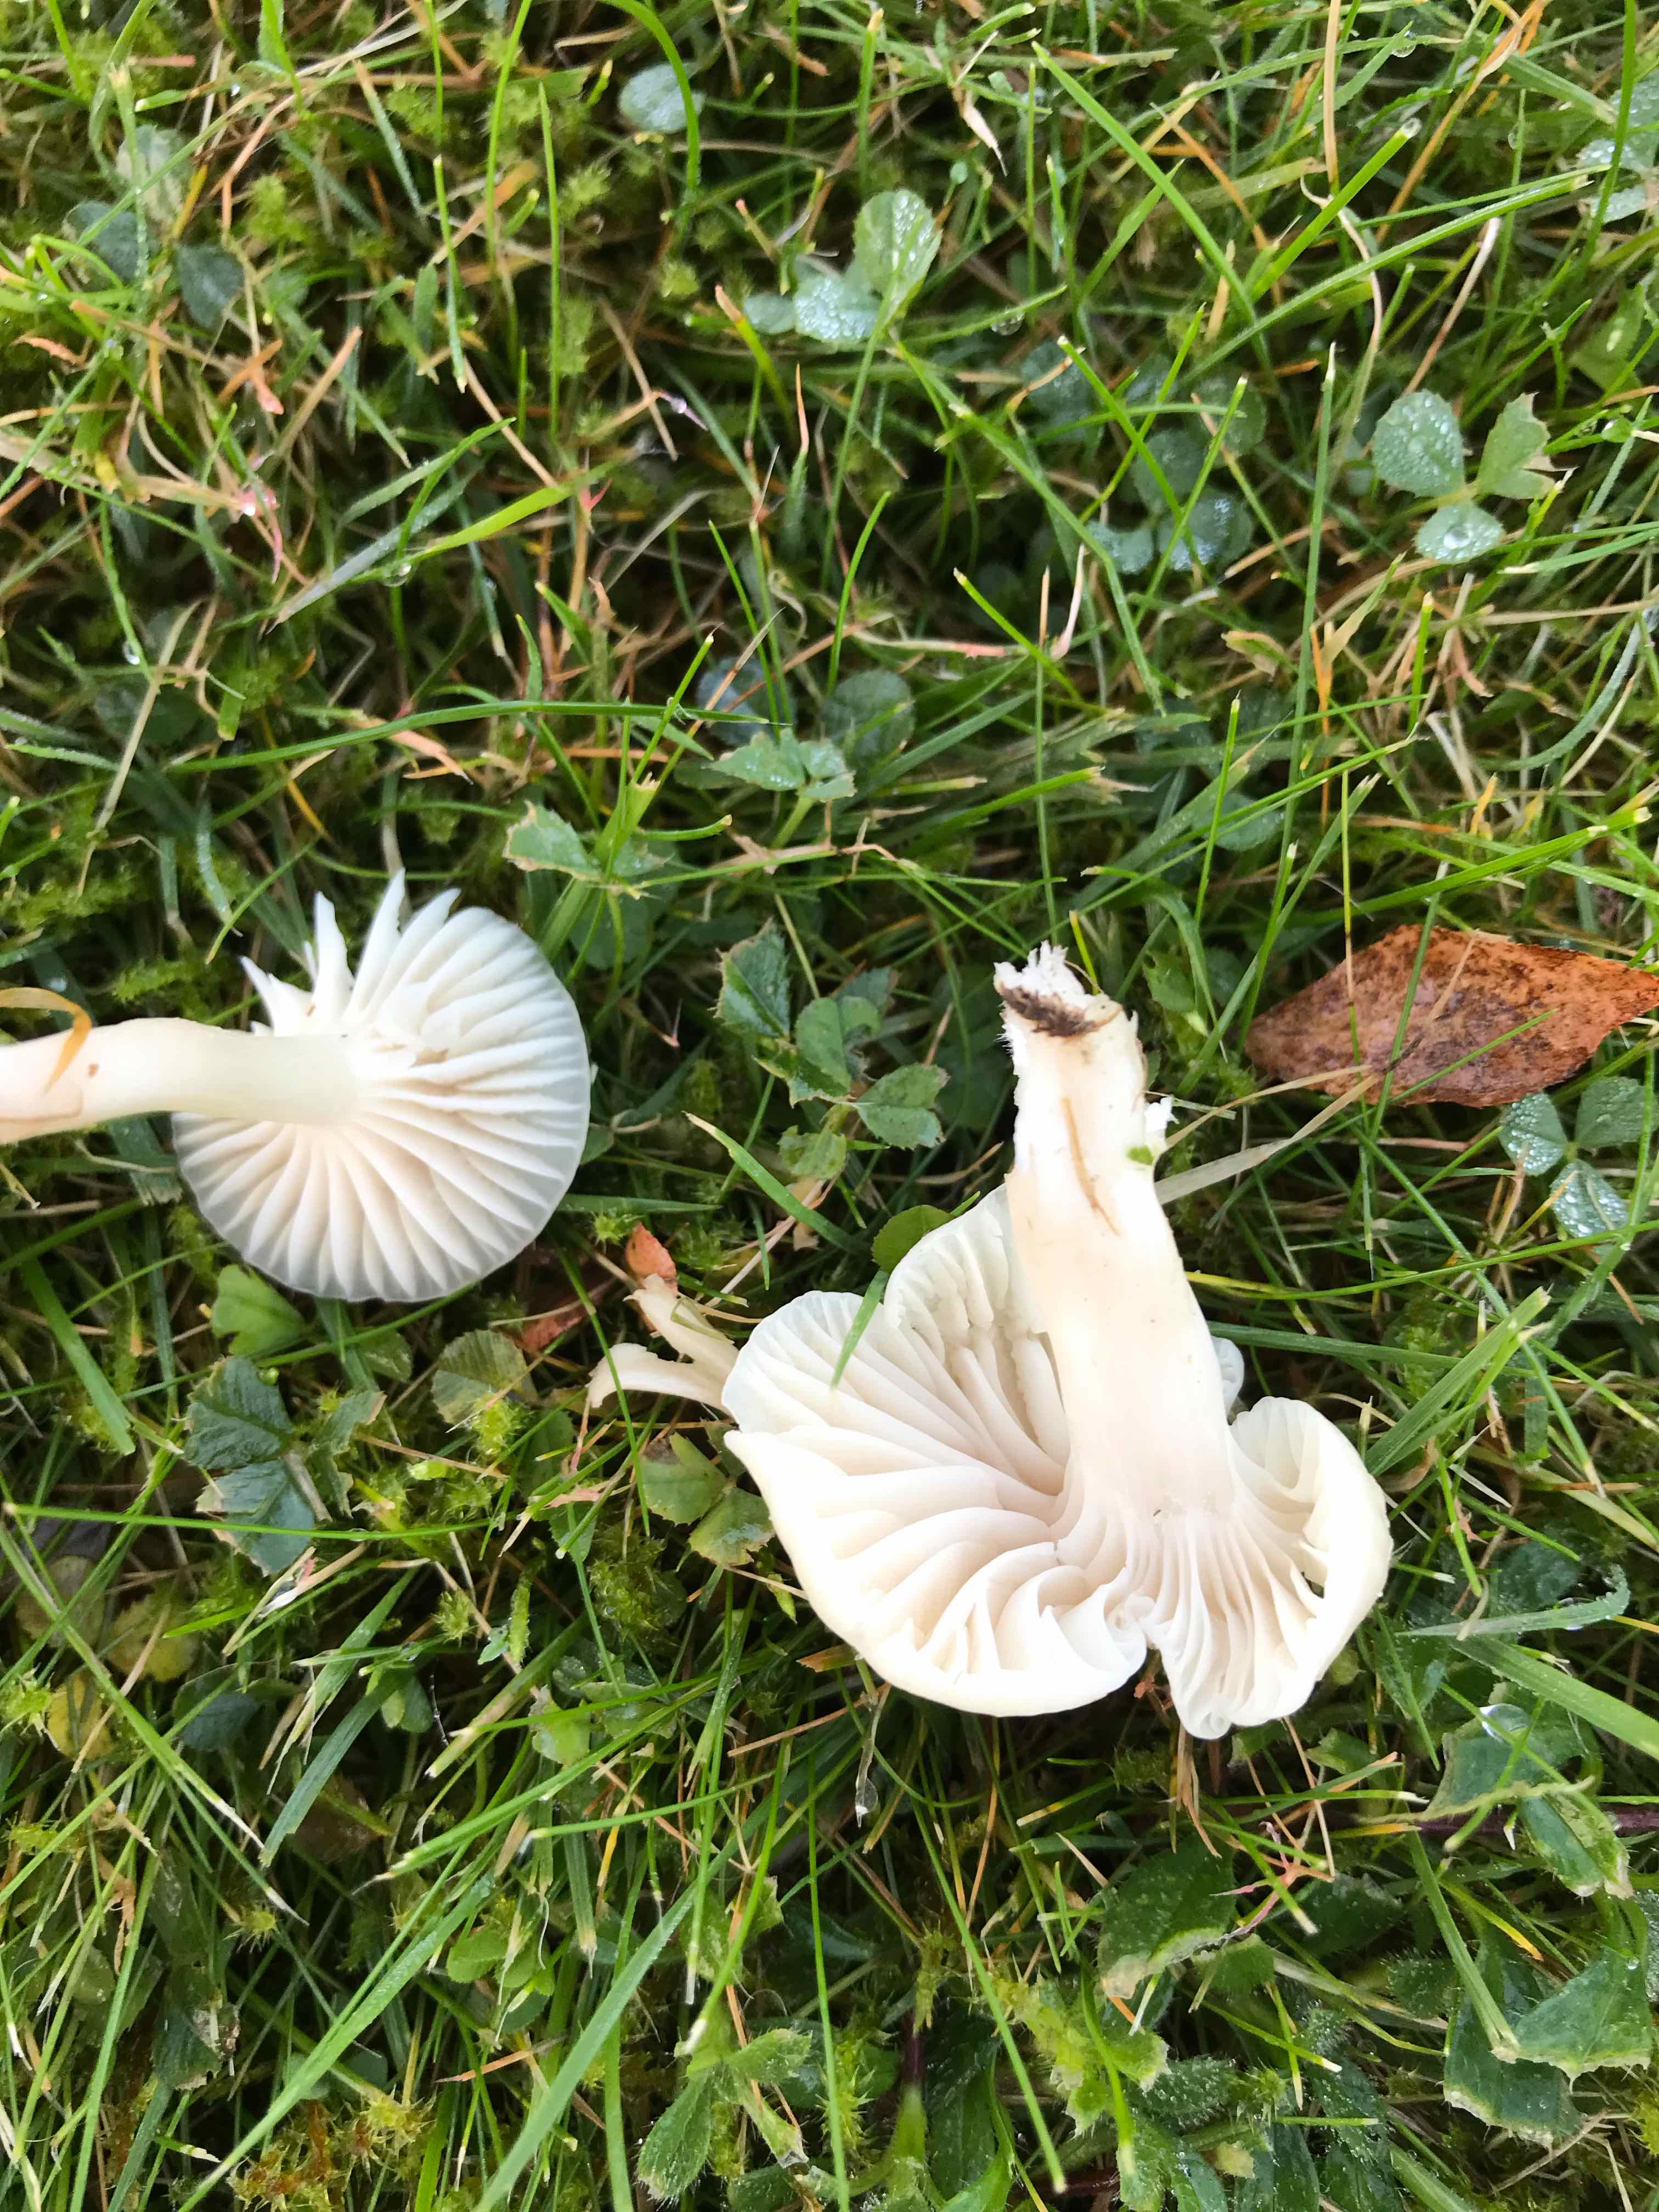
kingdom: Fungi
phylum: Basidiomycota
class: Agaricomycetes
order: Agaricales
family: Hygrophoraceae
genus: Cuphophyllus
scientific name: Cuphophyllus virgineus
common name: snehvid vokshat
